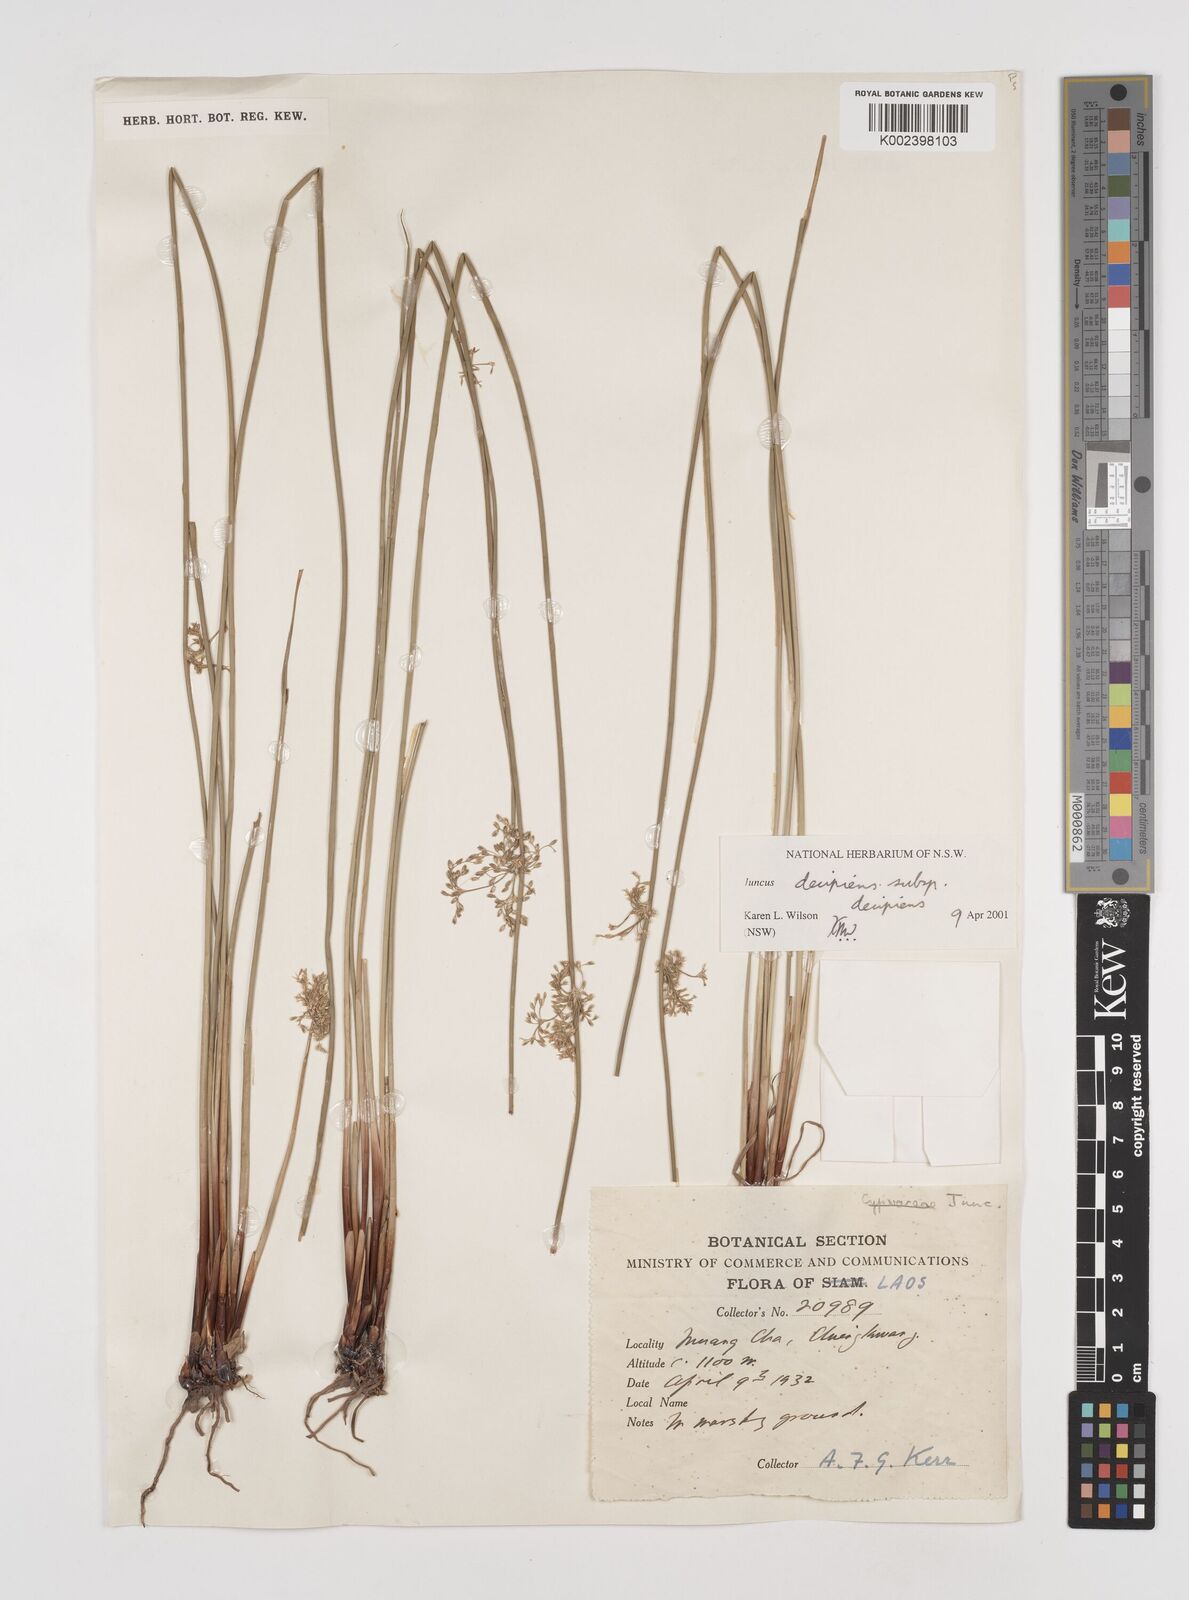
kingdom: Plantae
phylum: Tracheophyta
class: Liliopsida
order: Poales
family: Juncaceae
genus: Juncus
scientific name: Juncus decipiens
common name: Lamp rush
